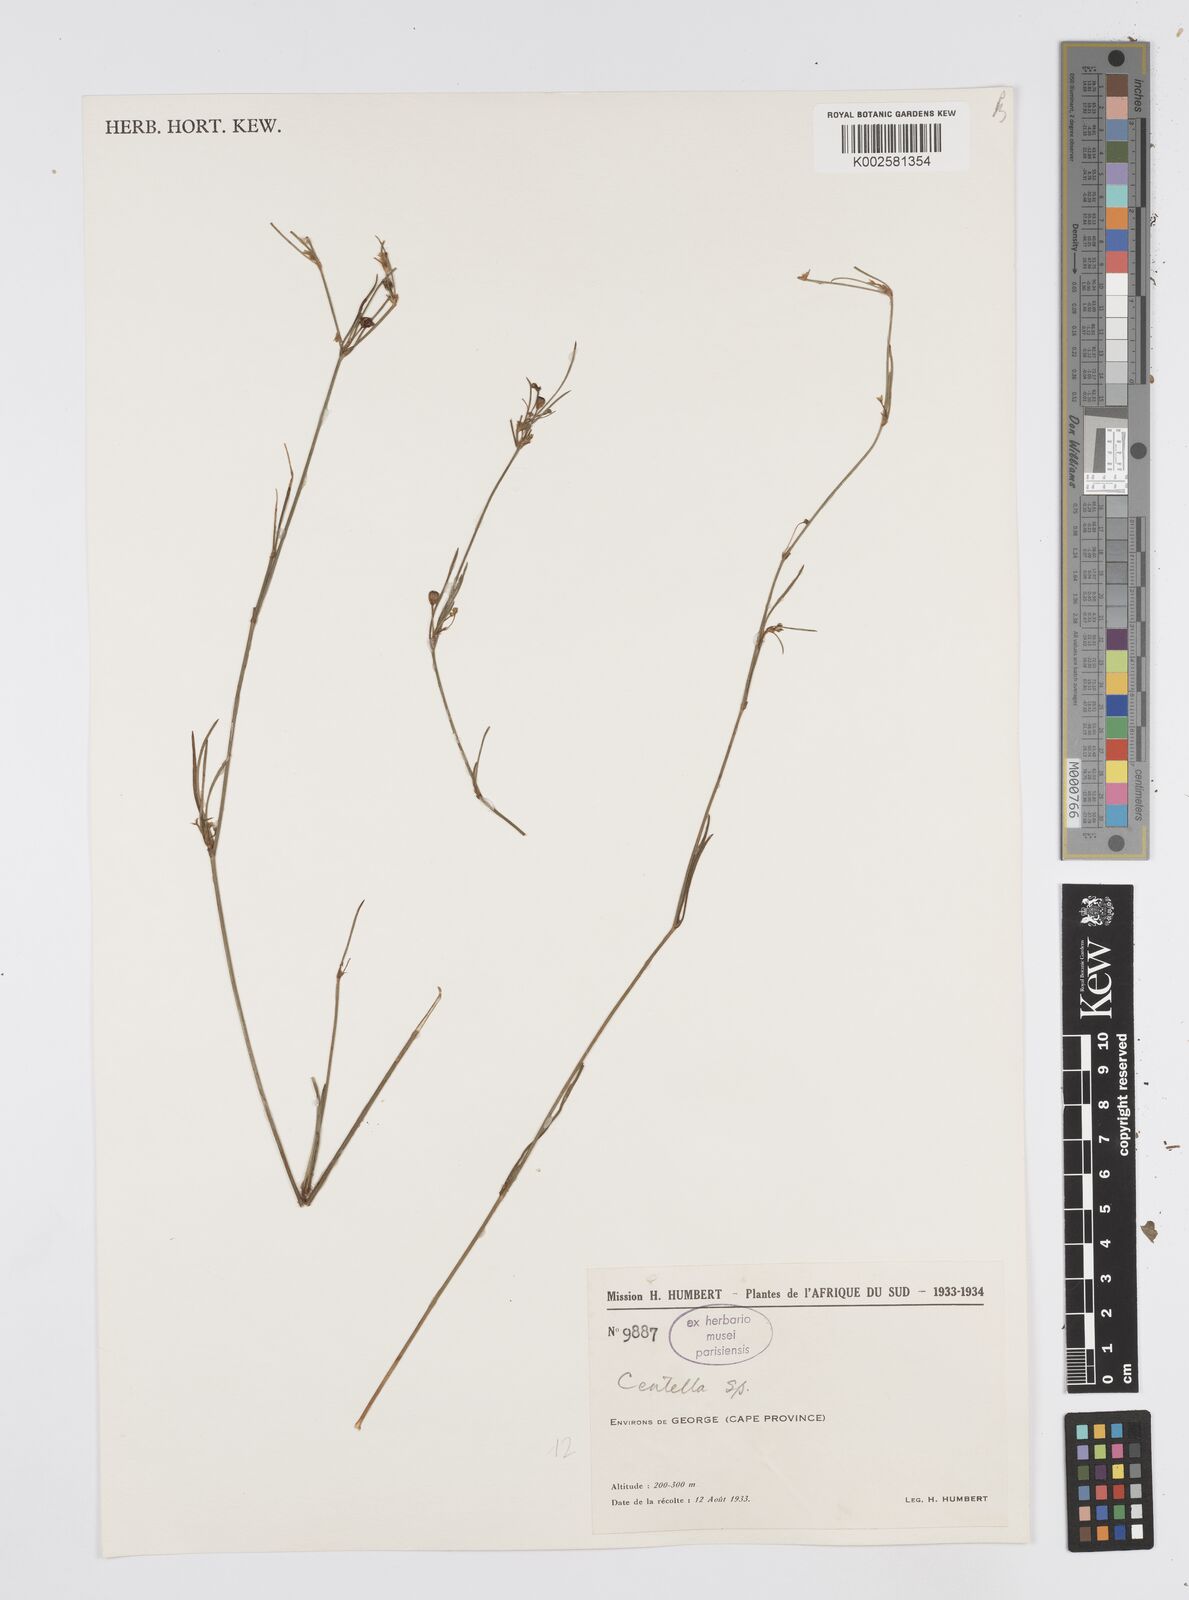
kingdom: Plantae
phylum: Tracheophyta
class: Magnoliopsida
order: Apiales
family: Apiaceae
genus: Centella
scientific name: Centella
